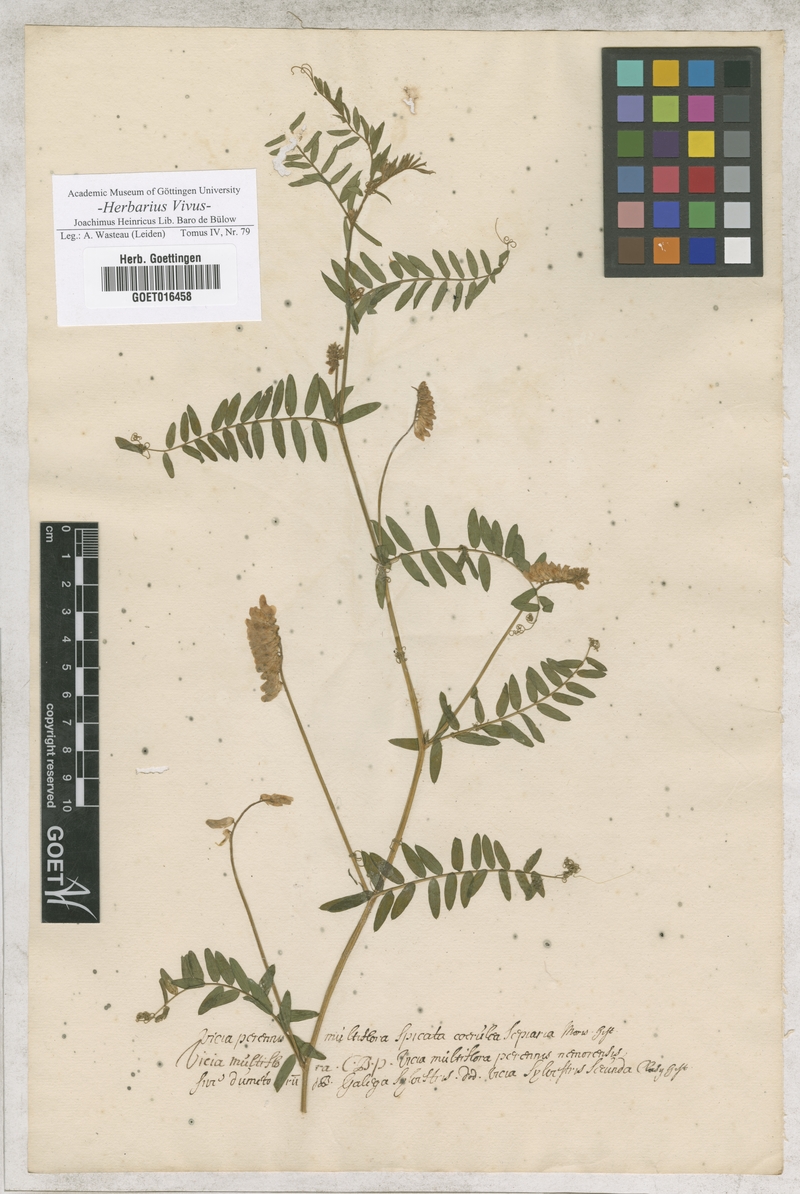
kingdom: Plantae
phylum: Tracheophyta
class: Magnoliopsida
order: Fabales
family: Fabaceae
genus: Vicia
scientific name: Vicia cracca
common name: Bird vetch
